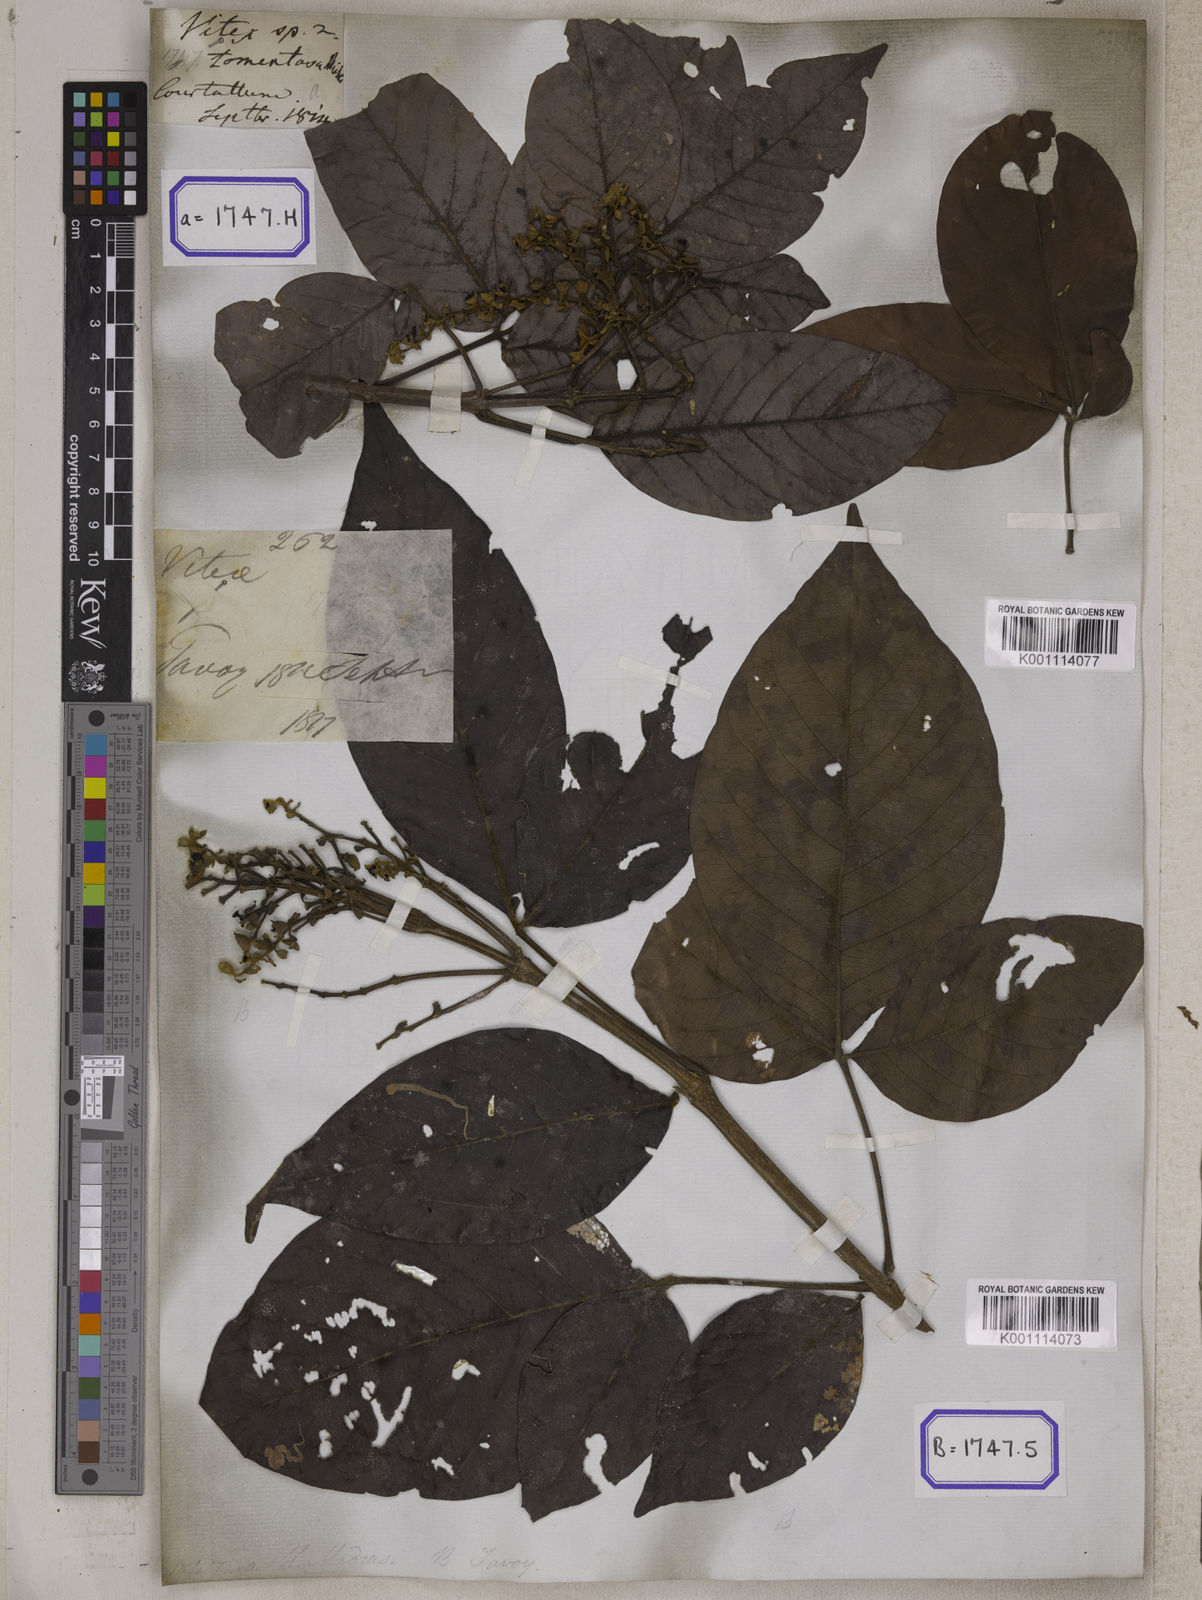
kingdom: Plantae
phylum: Tracheophyta
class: Magnoliopsida
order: Lamiales
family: Lamiaceae
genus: Vitex
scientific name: Vitex pinnata
